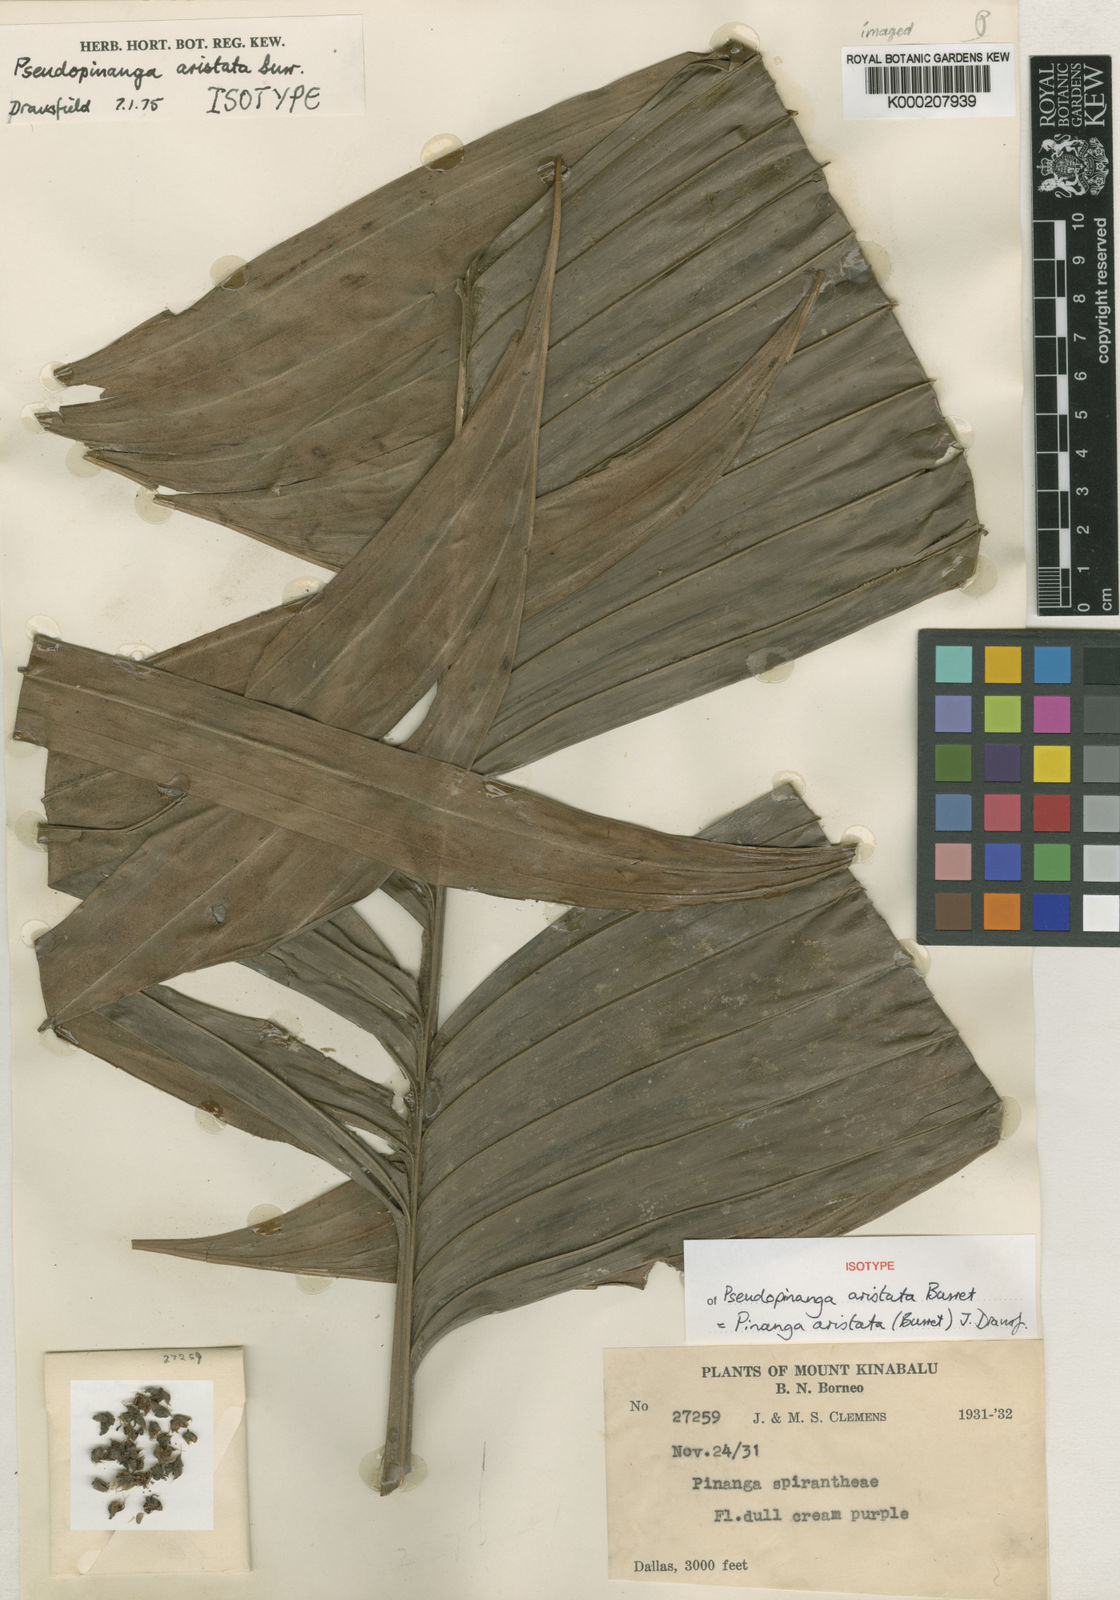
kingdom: Plantae
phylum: Tracheophyta
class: Liliopsida
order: Arecales
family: Arecaceae
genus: Pinanga
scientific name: Pinanga aristata
